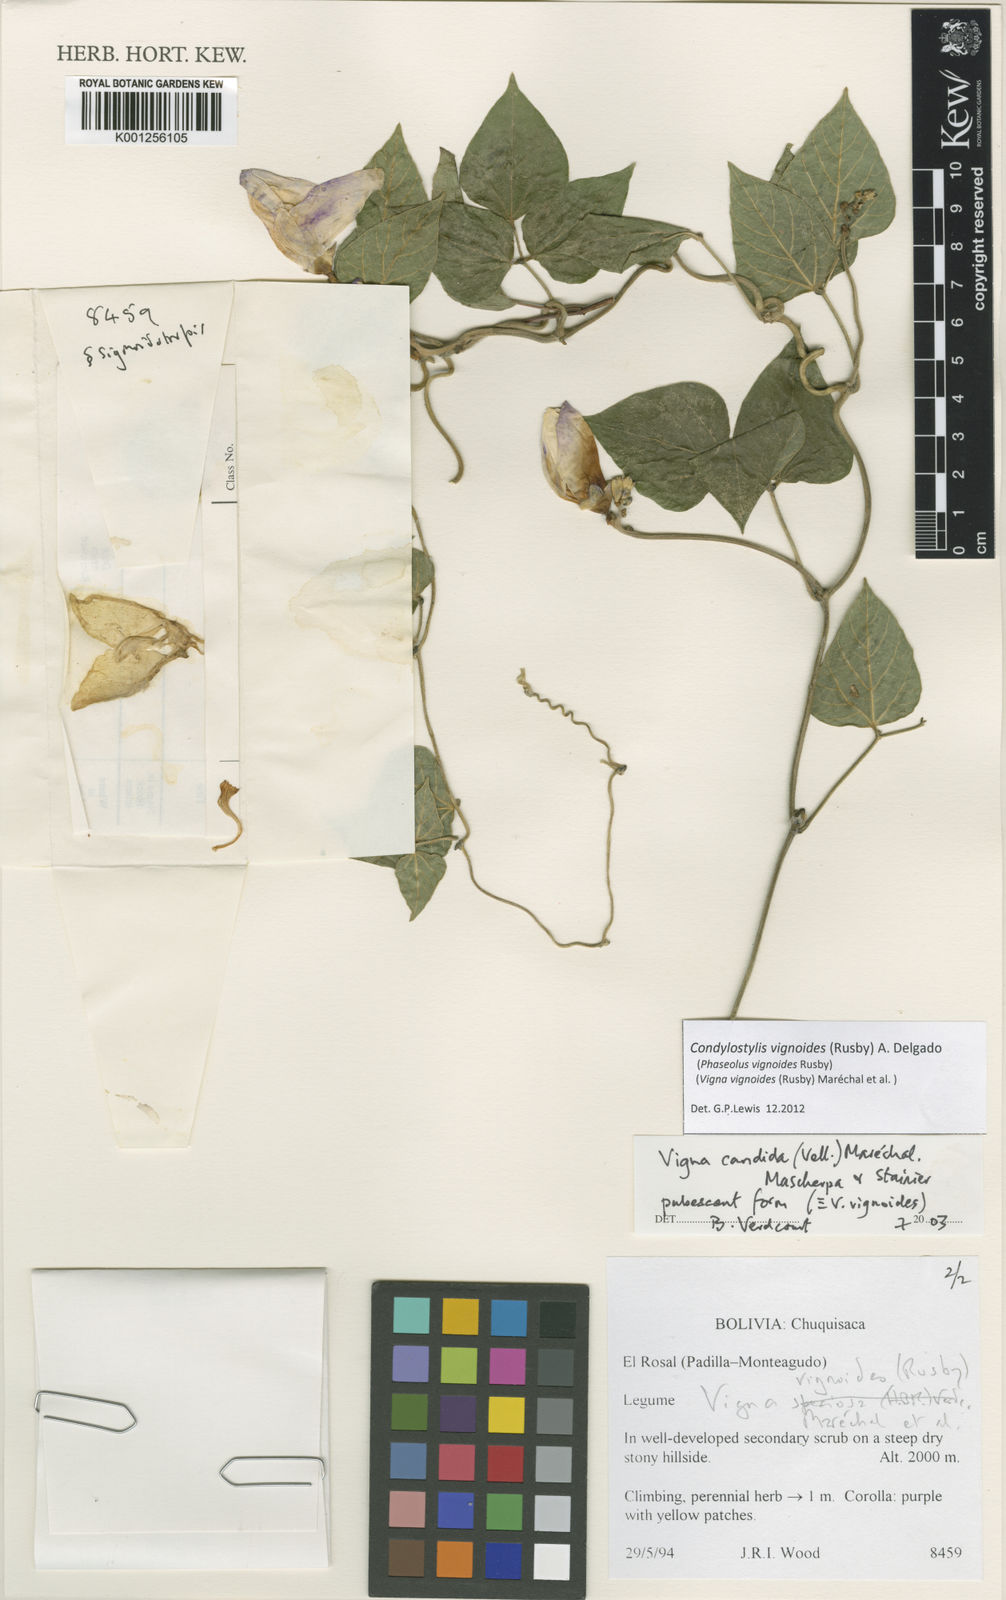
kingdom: Plantae
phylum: Tracheophyta
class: Magnoliopsida
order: Fabales
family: Fabaceae
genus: Condylostylis
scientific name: Condylostylis vignoides
